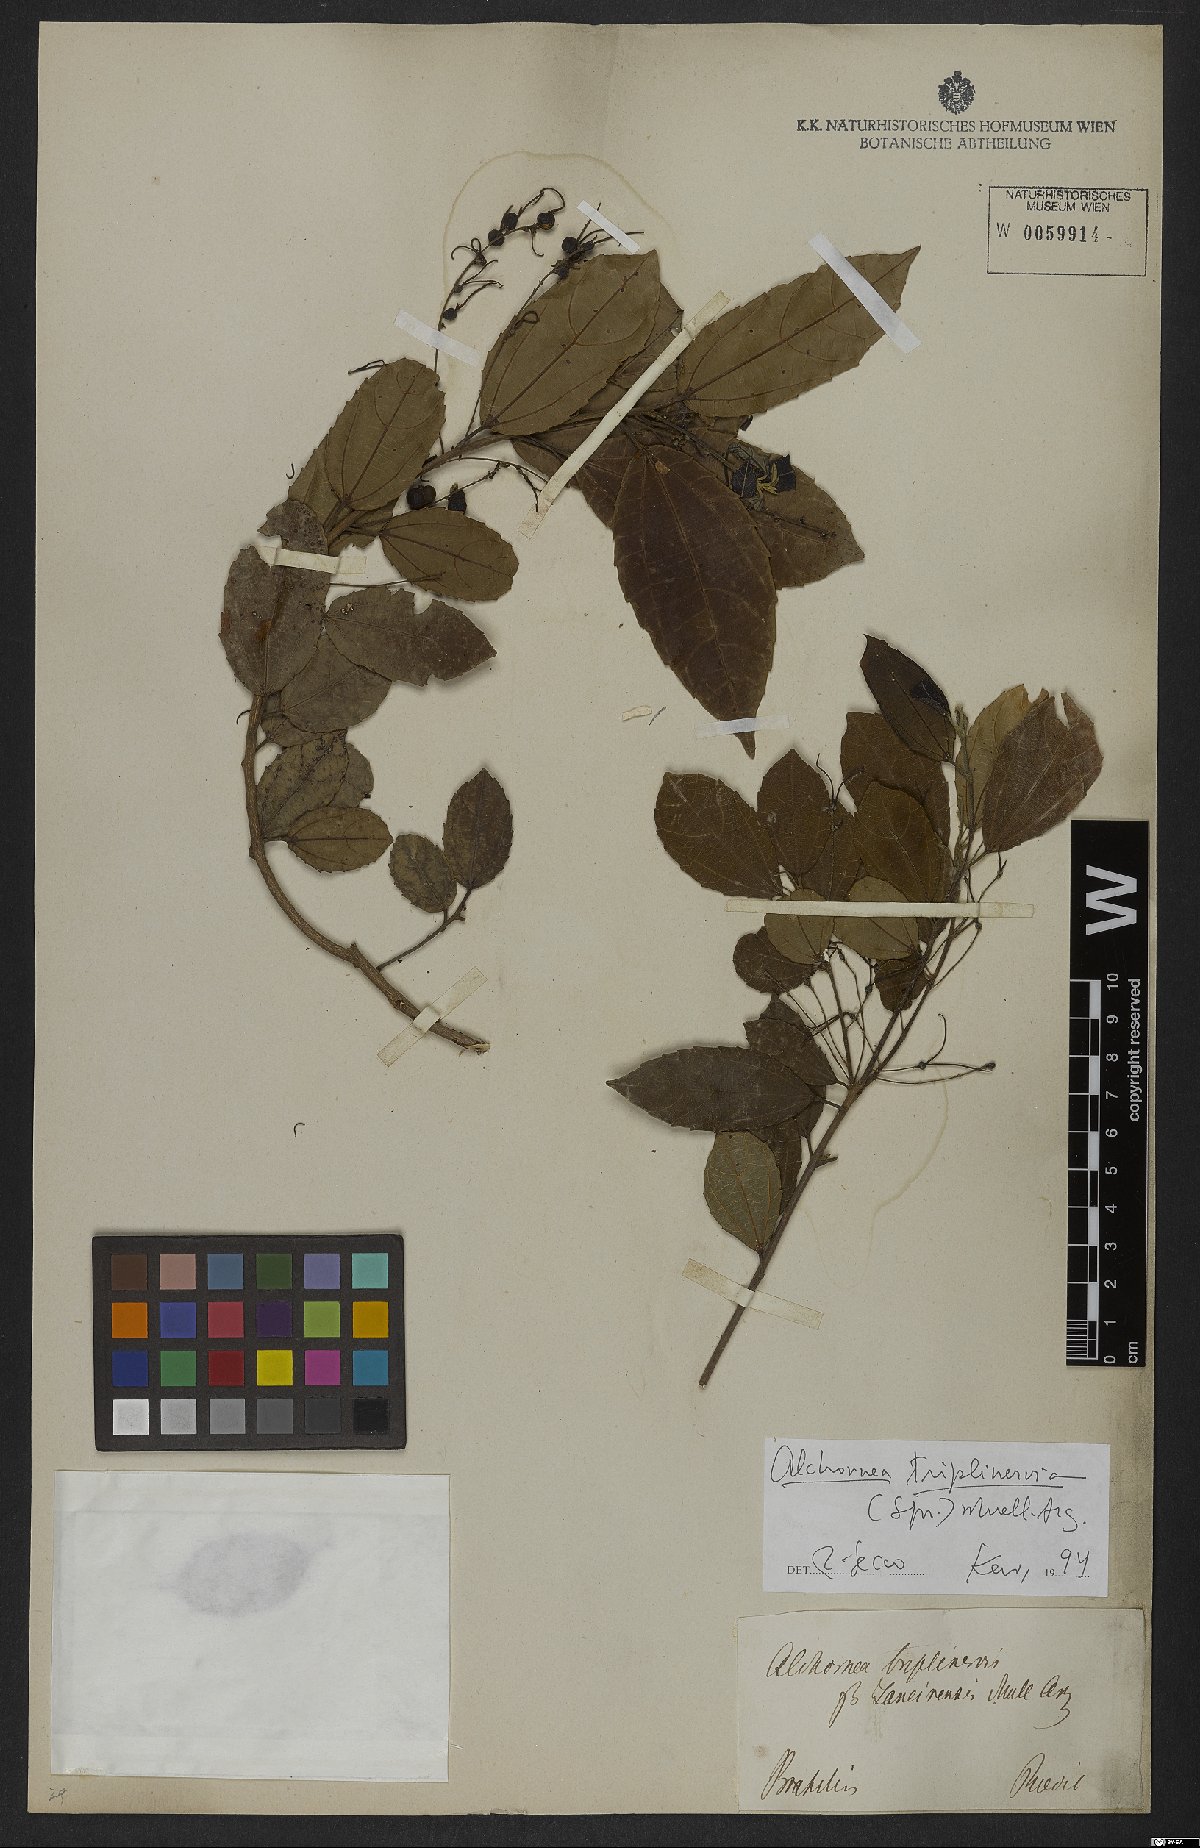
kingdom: Plantae
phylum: Tracheophyta
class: Magnoliopsida
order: Malpighiales
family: Euphorbiaceae
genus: Alchornea
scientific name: Alchornea triplinervia
